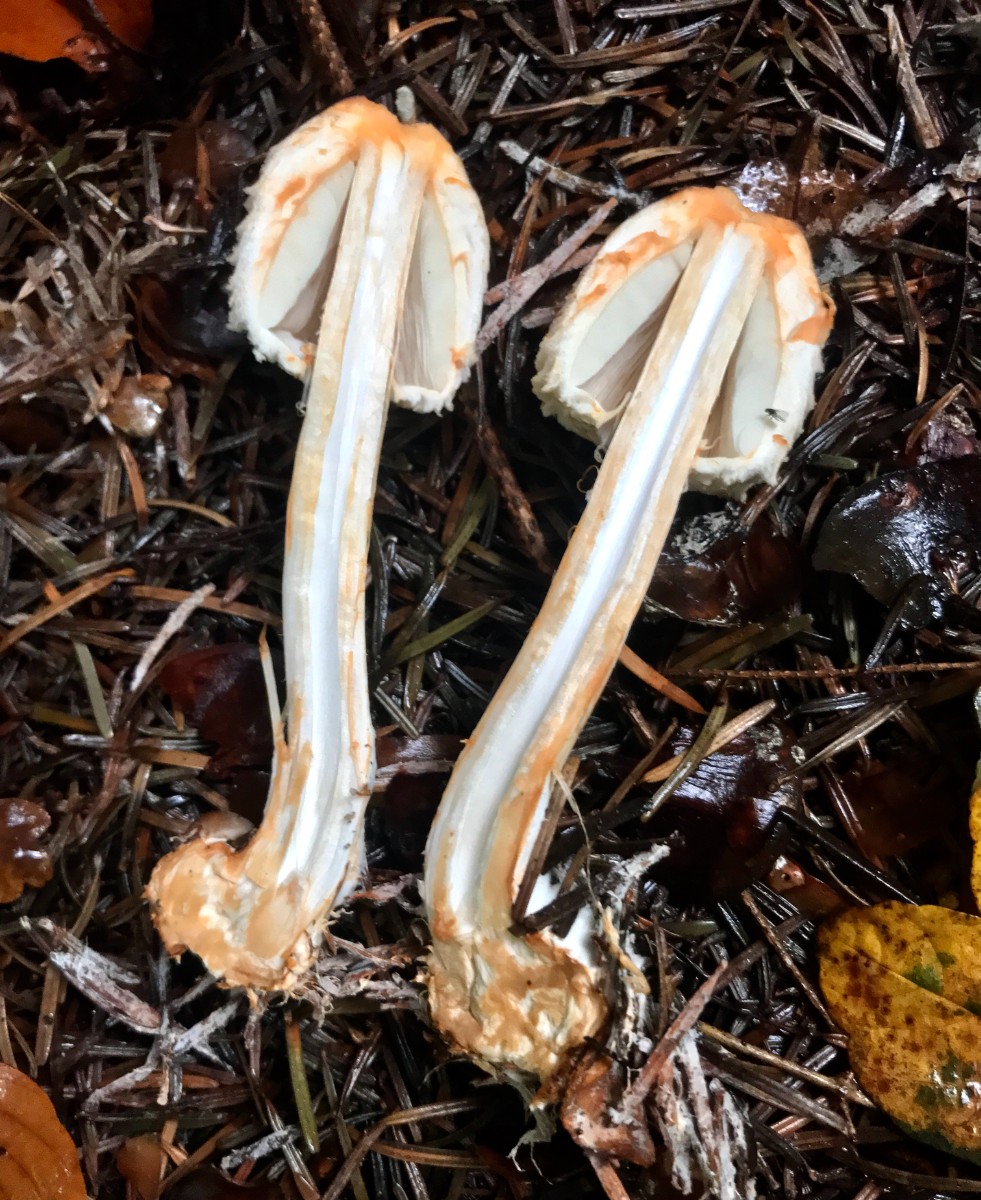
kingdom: Fungi
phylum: Basidiomycota
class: Agaricomycetes
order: Agaricales
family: Agaricaceae
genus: Chlorophyllum
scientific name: Chlorophyllum olivieri
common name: almindelig rabarberhat
